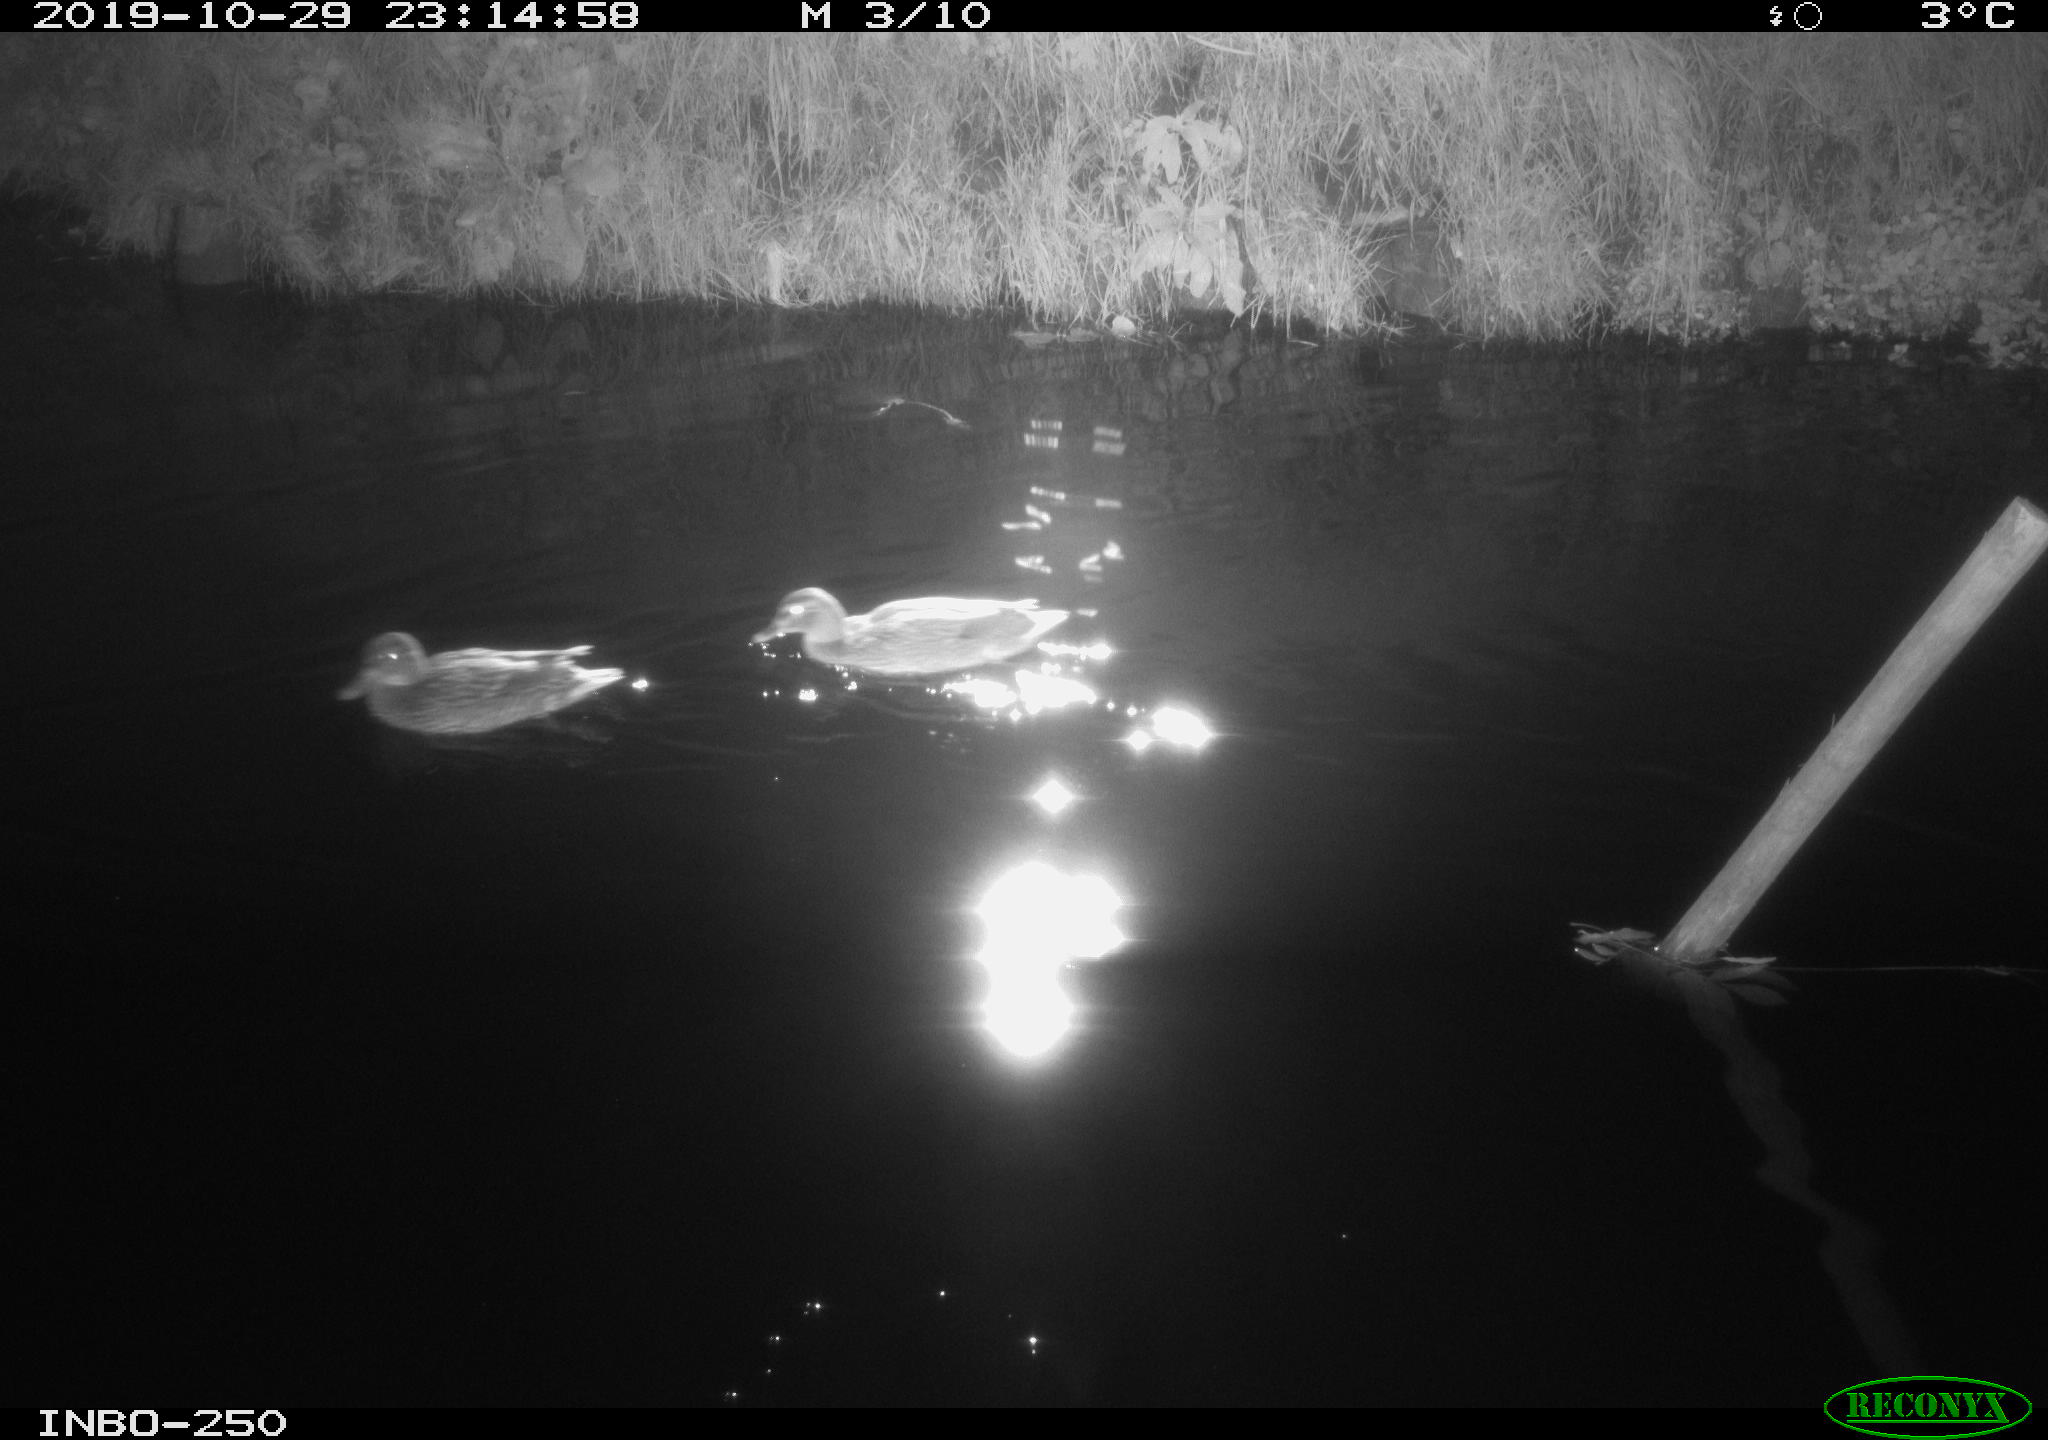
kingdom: Animalia
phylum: Chordata
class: Aves
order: Anseriformes
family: Anatidae
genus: Anas
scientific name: Anas platyrhynchos
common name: Mallard
